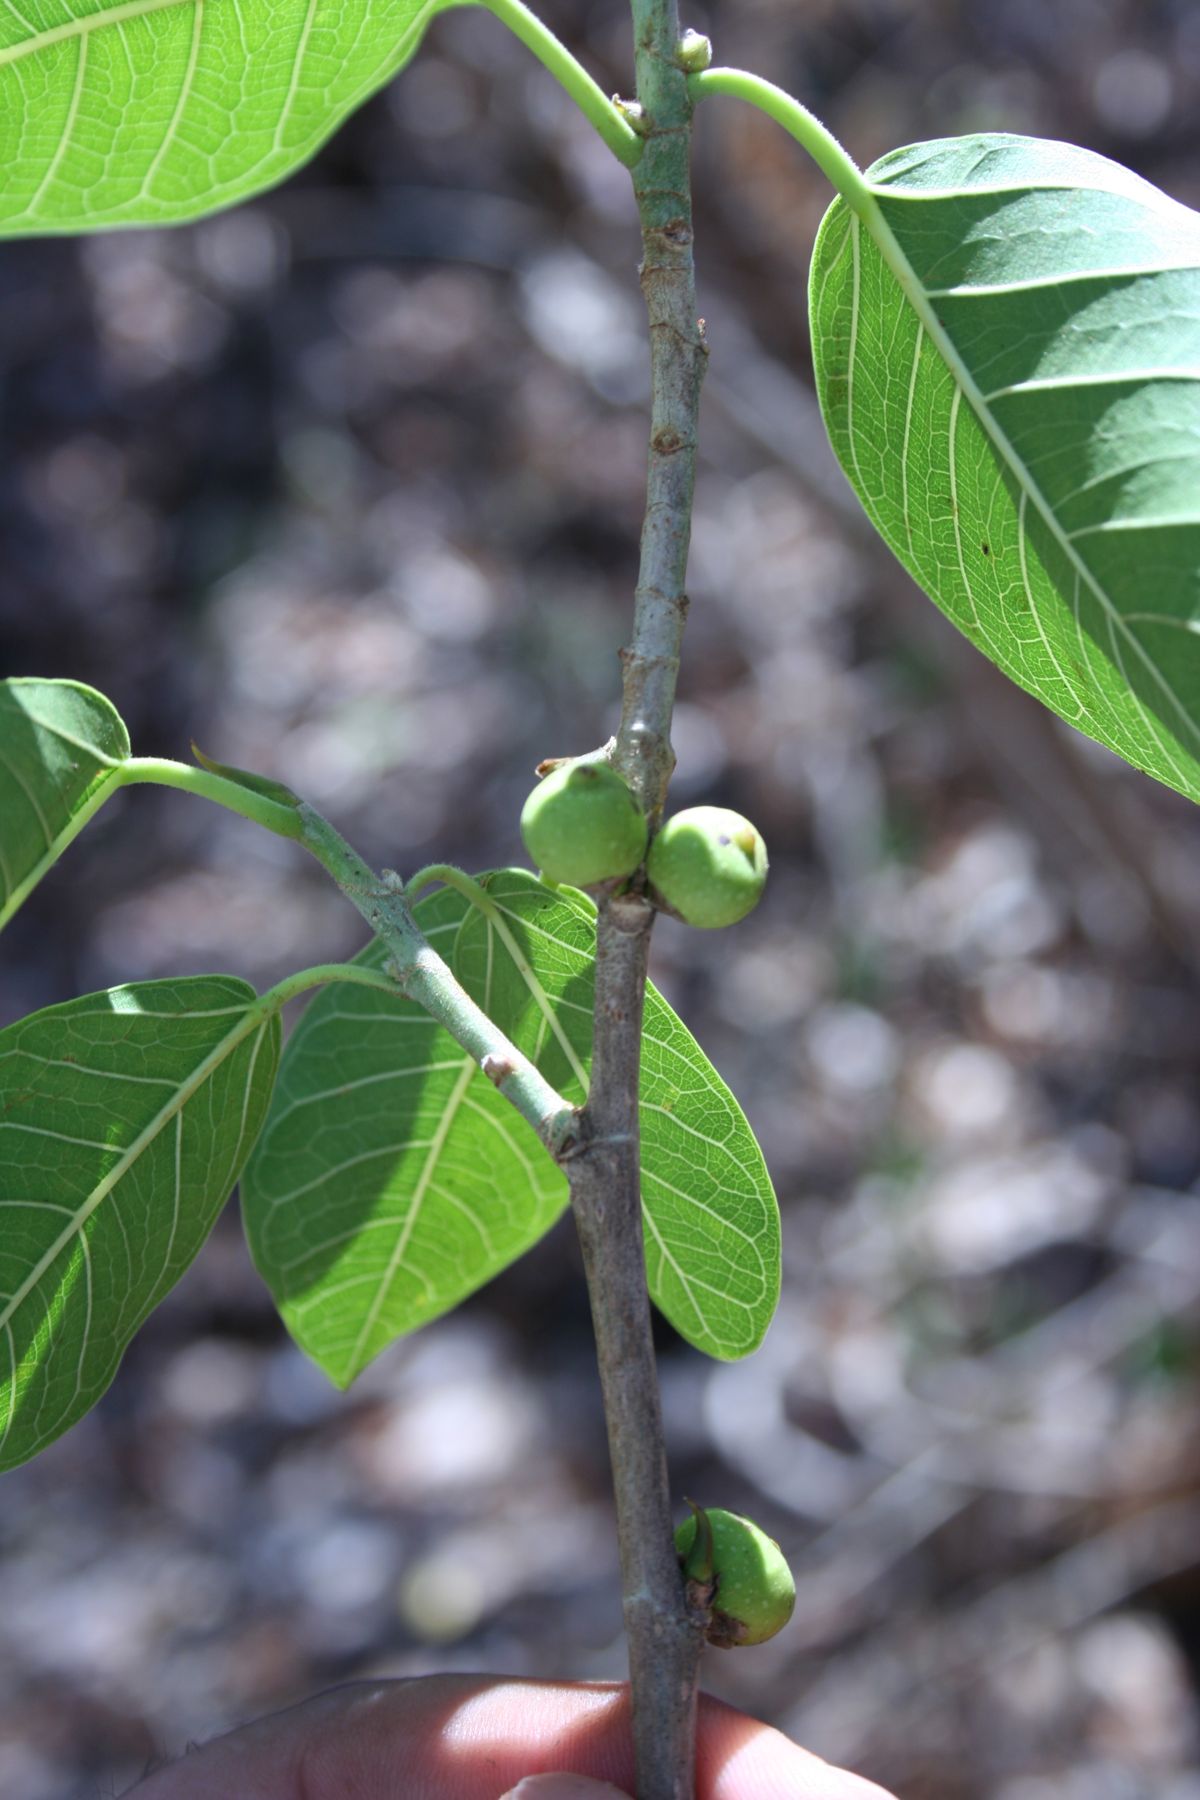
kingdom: Plantae
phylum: Tracheophyta
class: Magnoliopsida
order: Rosales
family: Moraceae
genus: Ficus
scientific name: Ficus costaricana
